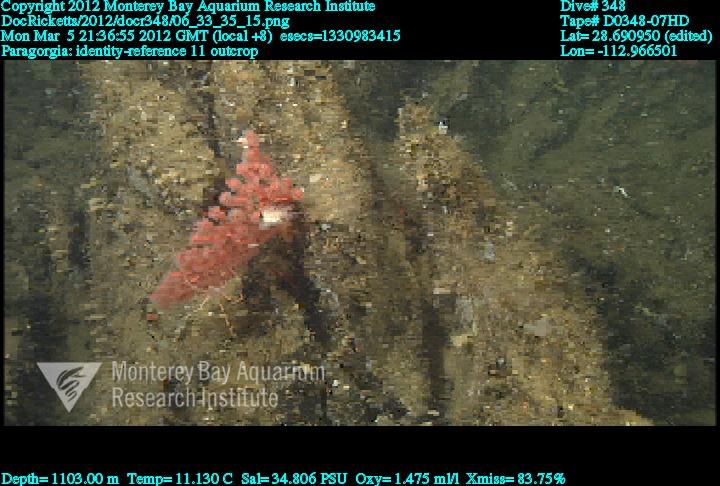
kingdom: Animalia
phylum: Cnidaria
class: Anthozoa
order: Scleralcyonacea
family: Coralliidae
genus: Paragorgia
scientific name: Paragorgia
